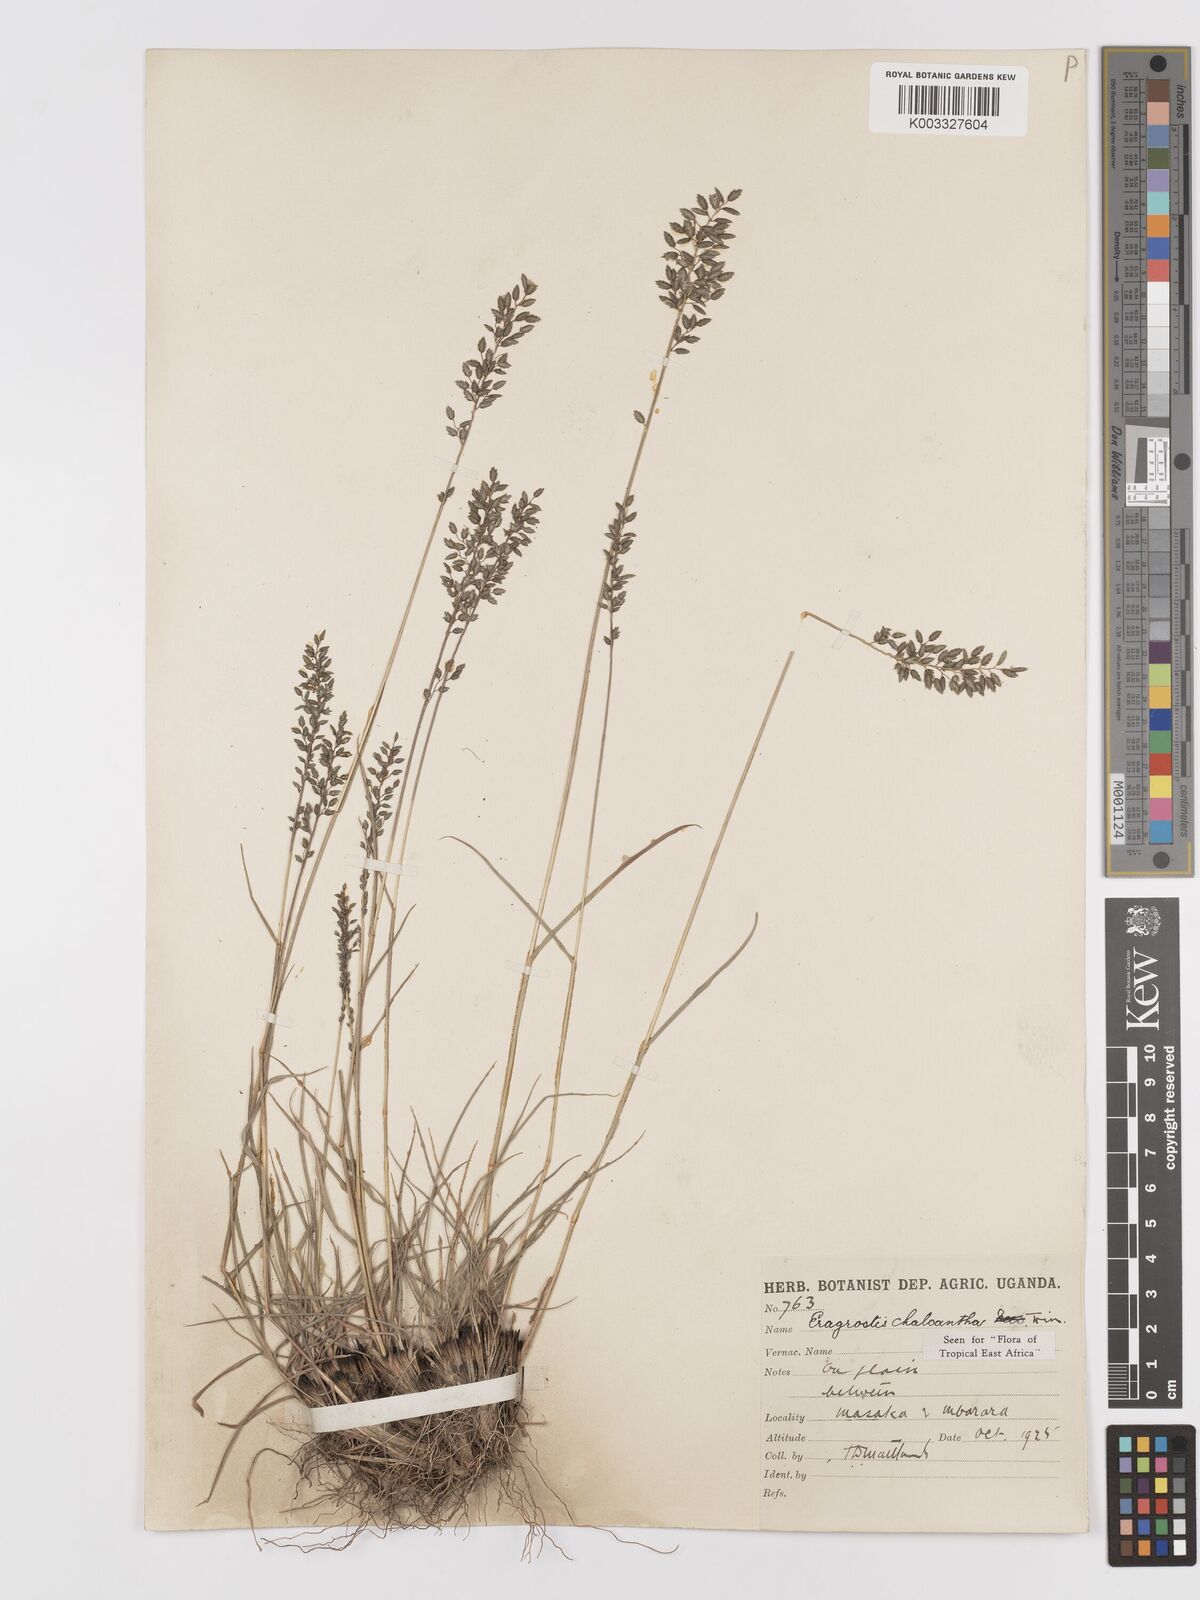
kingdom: Plantae
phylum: Tracheophyta
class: Liliopsida
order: Poales
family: Poaceae
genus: Eragrostis
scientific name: Eragrostis racemosa
